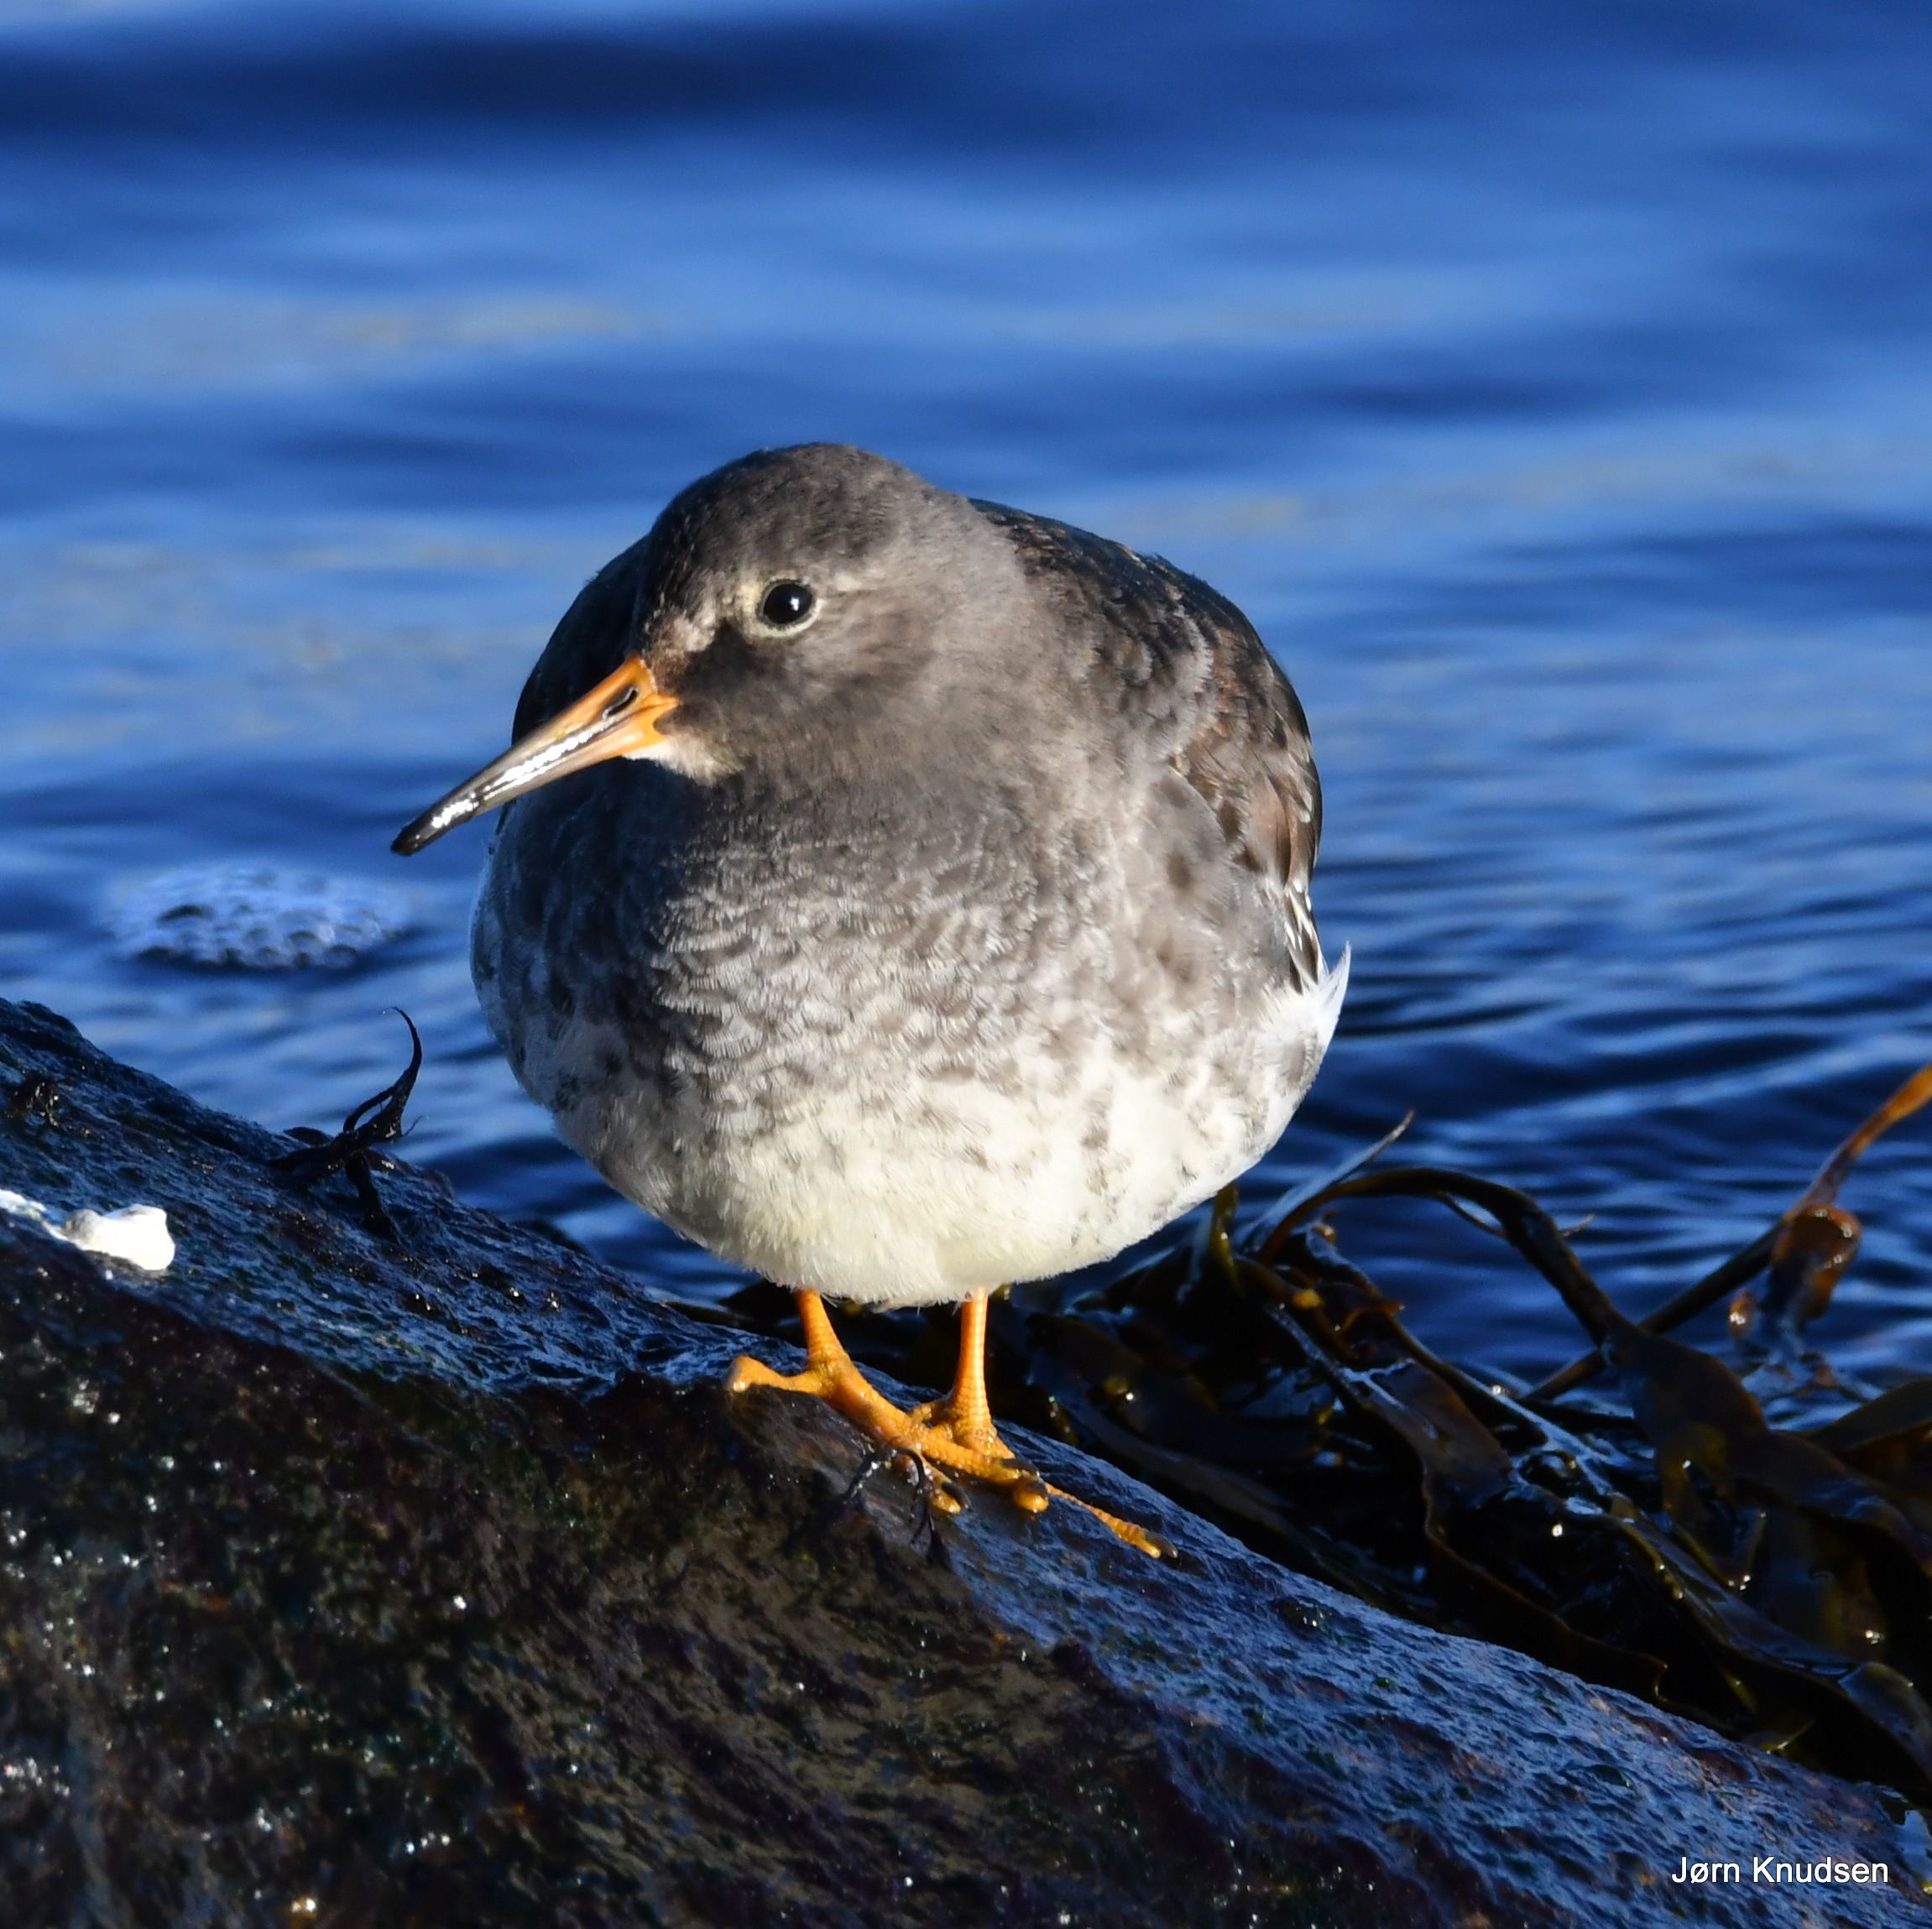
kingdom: Animalia
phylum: Chordata
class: Aves
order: Charadriiformes
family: Scolopacidae
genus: Calidris
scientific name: Calidris maritima
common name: Sortgrå ryle
